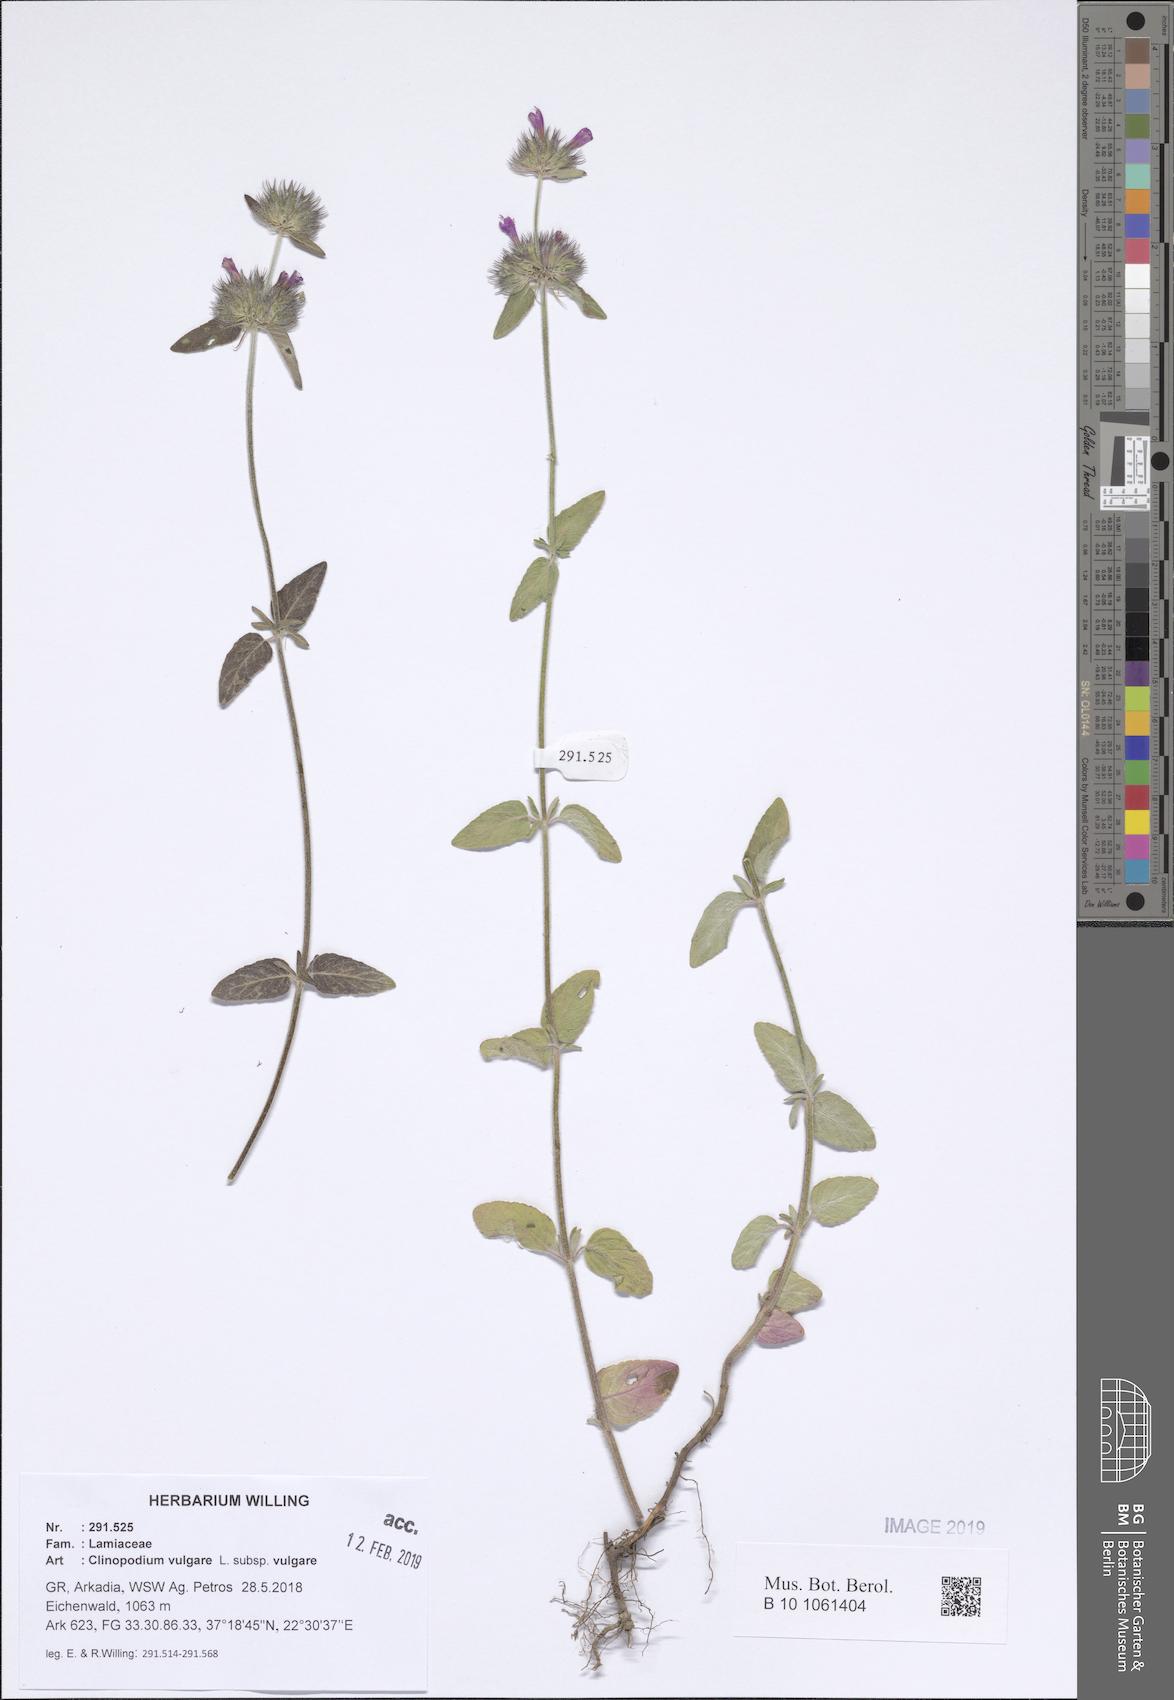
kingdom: Plantae
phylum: Tracheophyta
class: Magnoliopsida
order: Lamiales
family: Lamiaceae
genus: Clinopodium
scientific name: Clinopodium vulgare
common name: Wild basil
